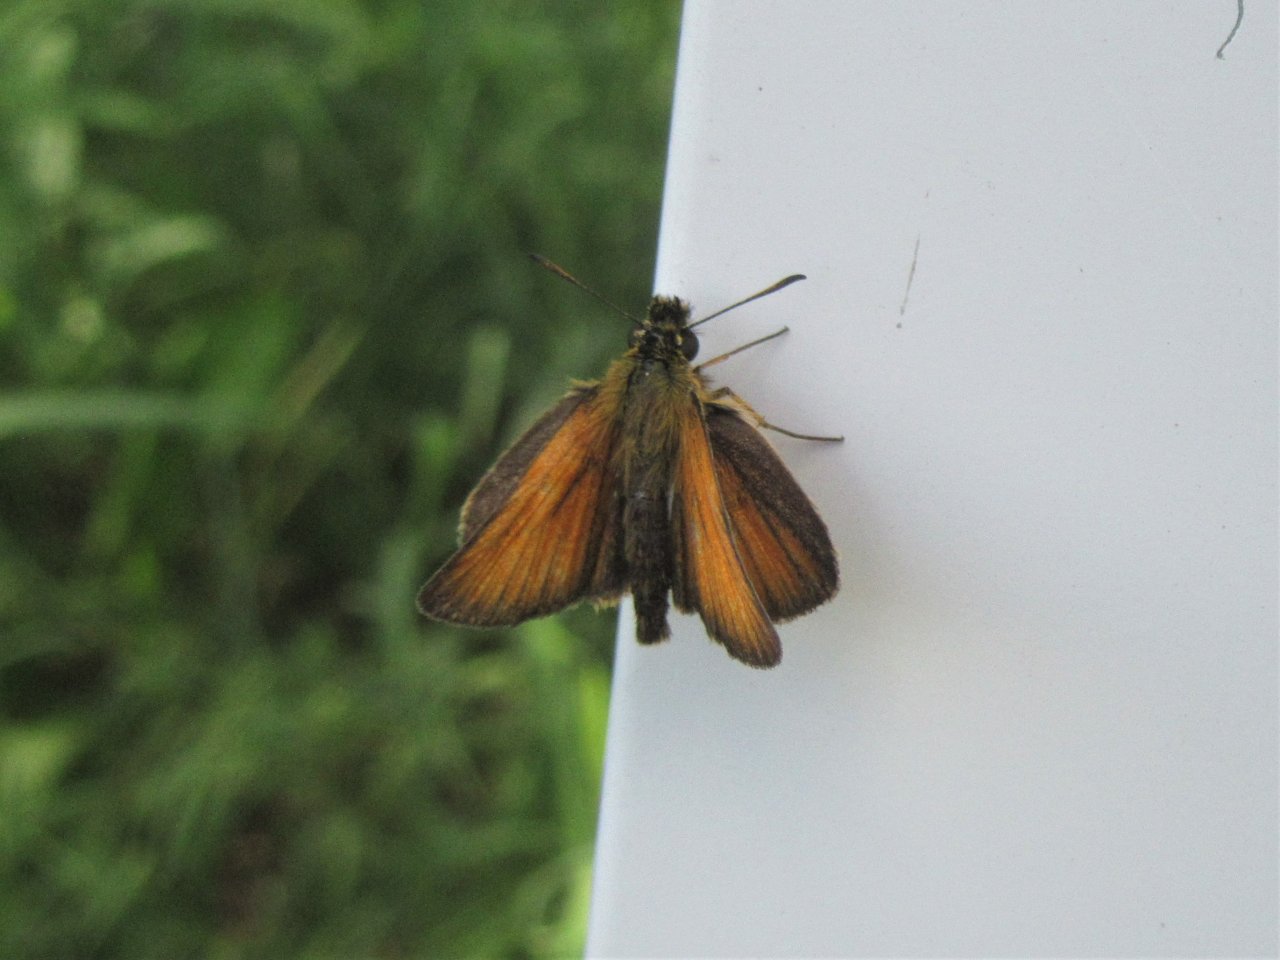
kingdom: Animalia
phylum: Arthropoda
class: Insecta
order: Lepidoptera
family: Hesperiidae
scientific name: Hesperiidae
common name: Skippers
